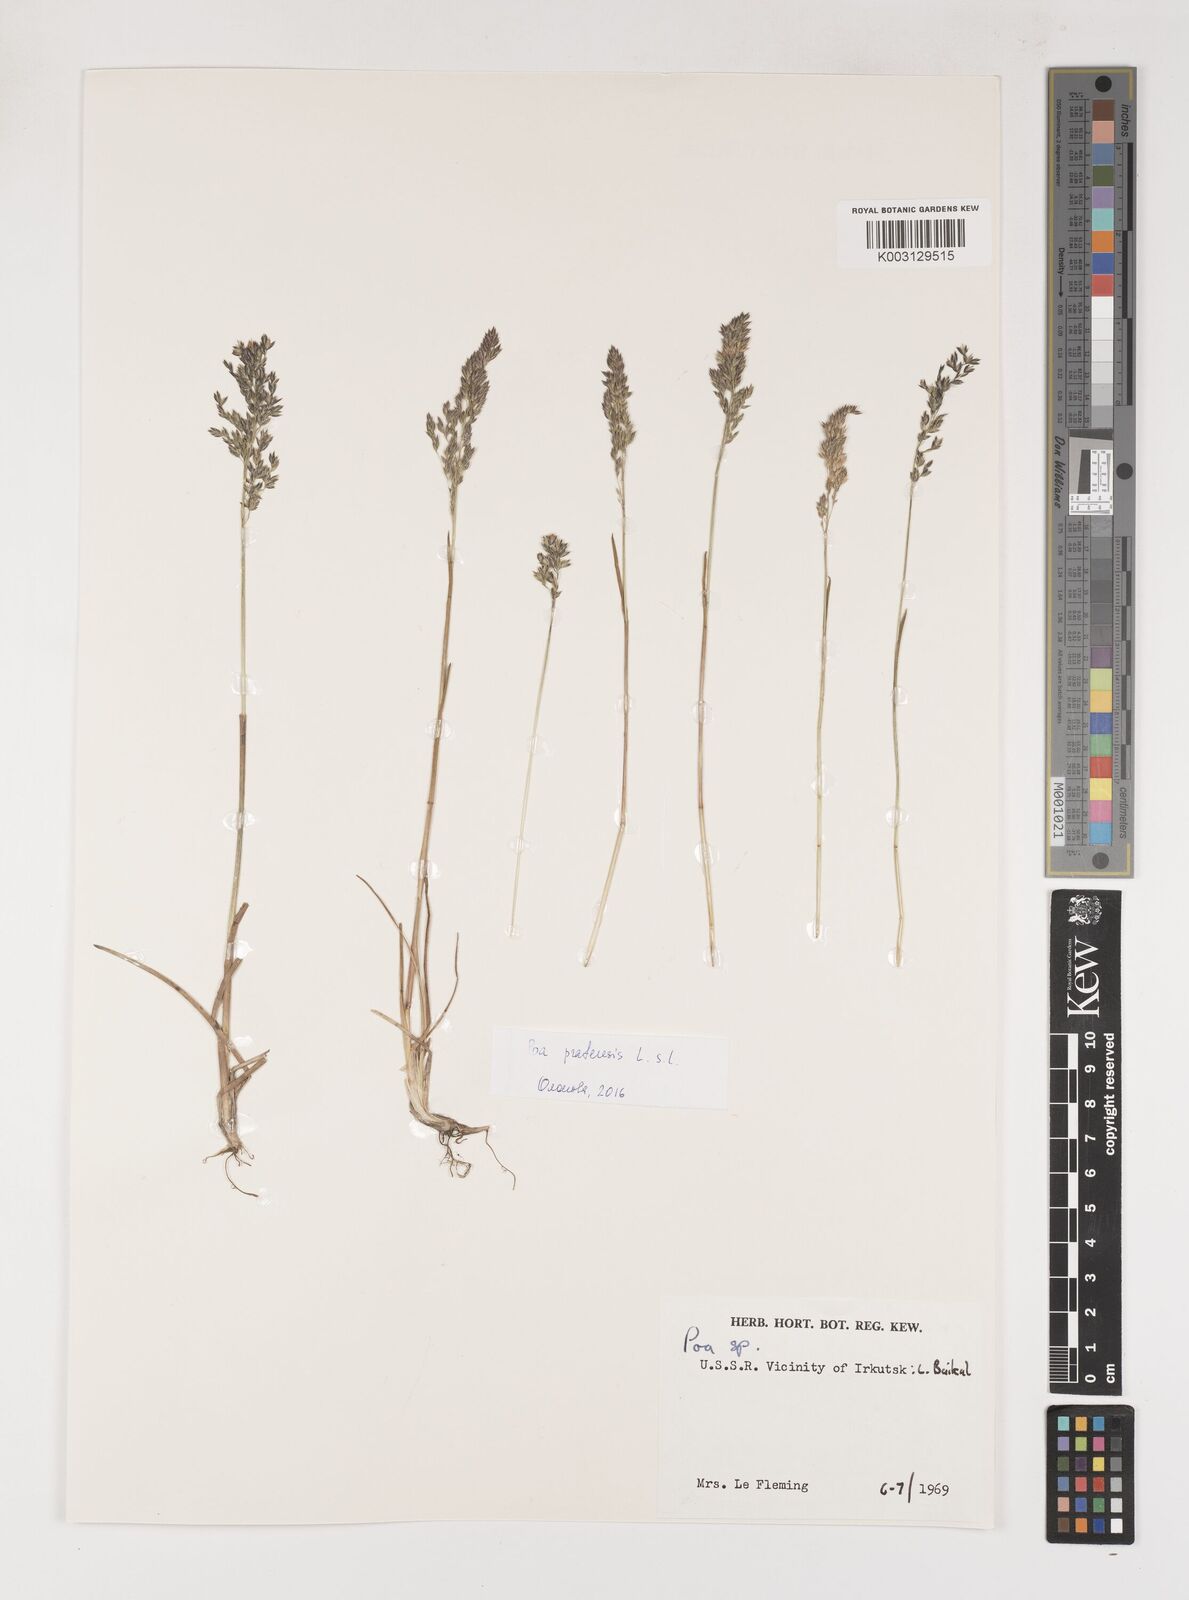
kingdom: Plantae
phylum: Tracheophyta
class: Liliopsida
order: Poales
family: Poaceae
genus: Poa
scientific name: Poa
